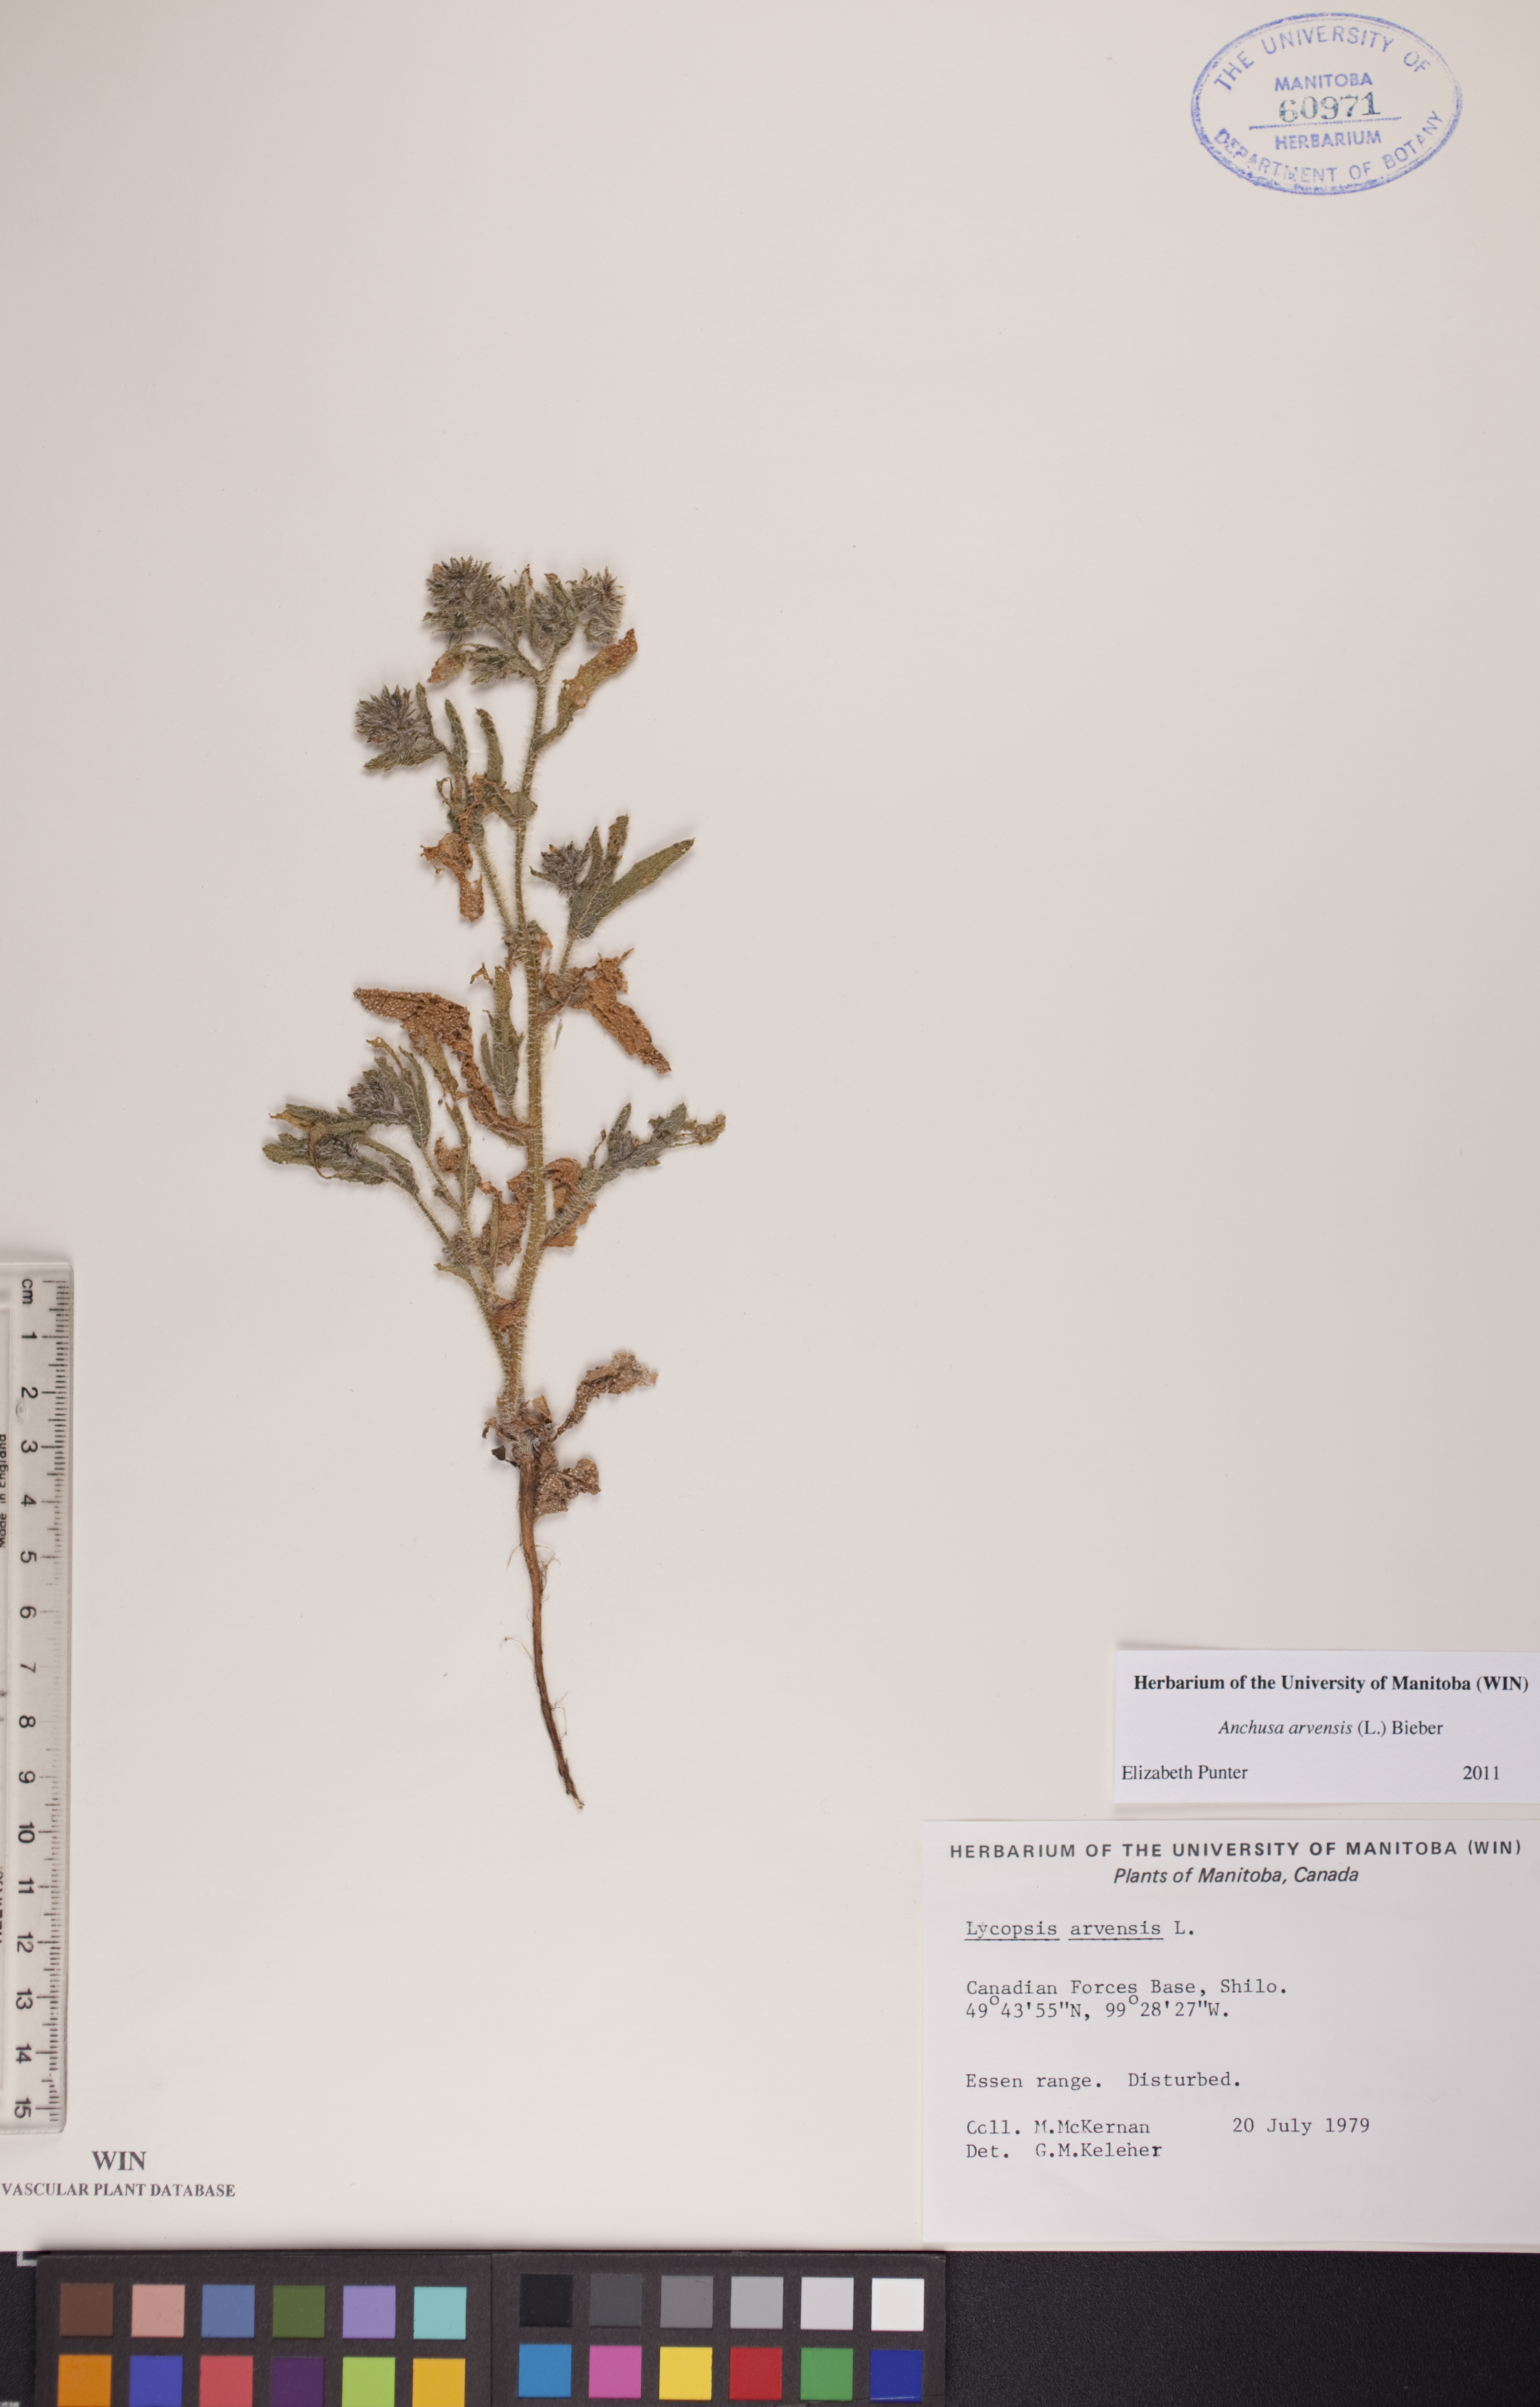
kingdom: Plantae
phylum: Tracheophyta
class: Magnoliopsida
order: Boraginales
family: Boraginaceae
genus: Lycopsis
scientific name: Lycopsis arvensis
